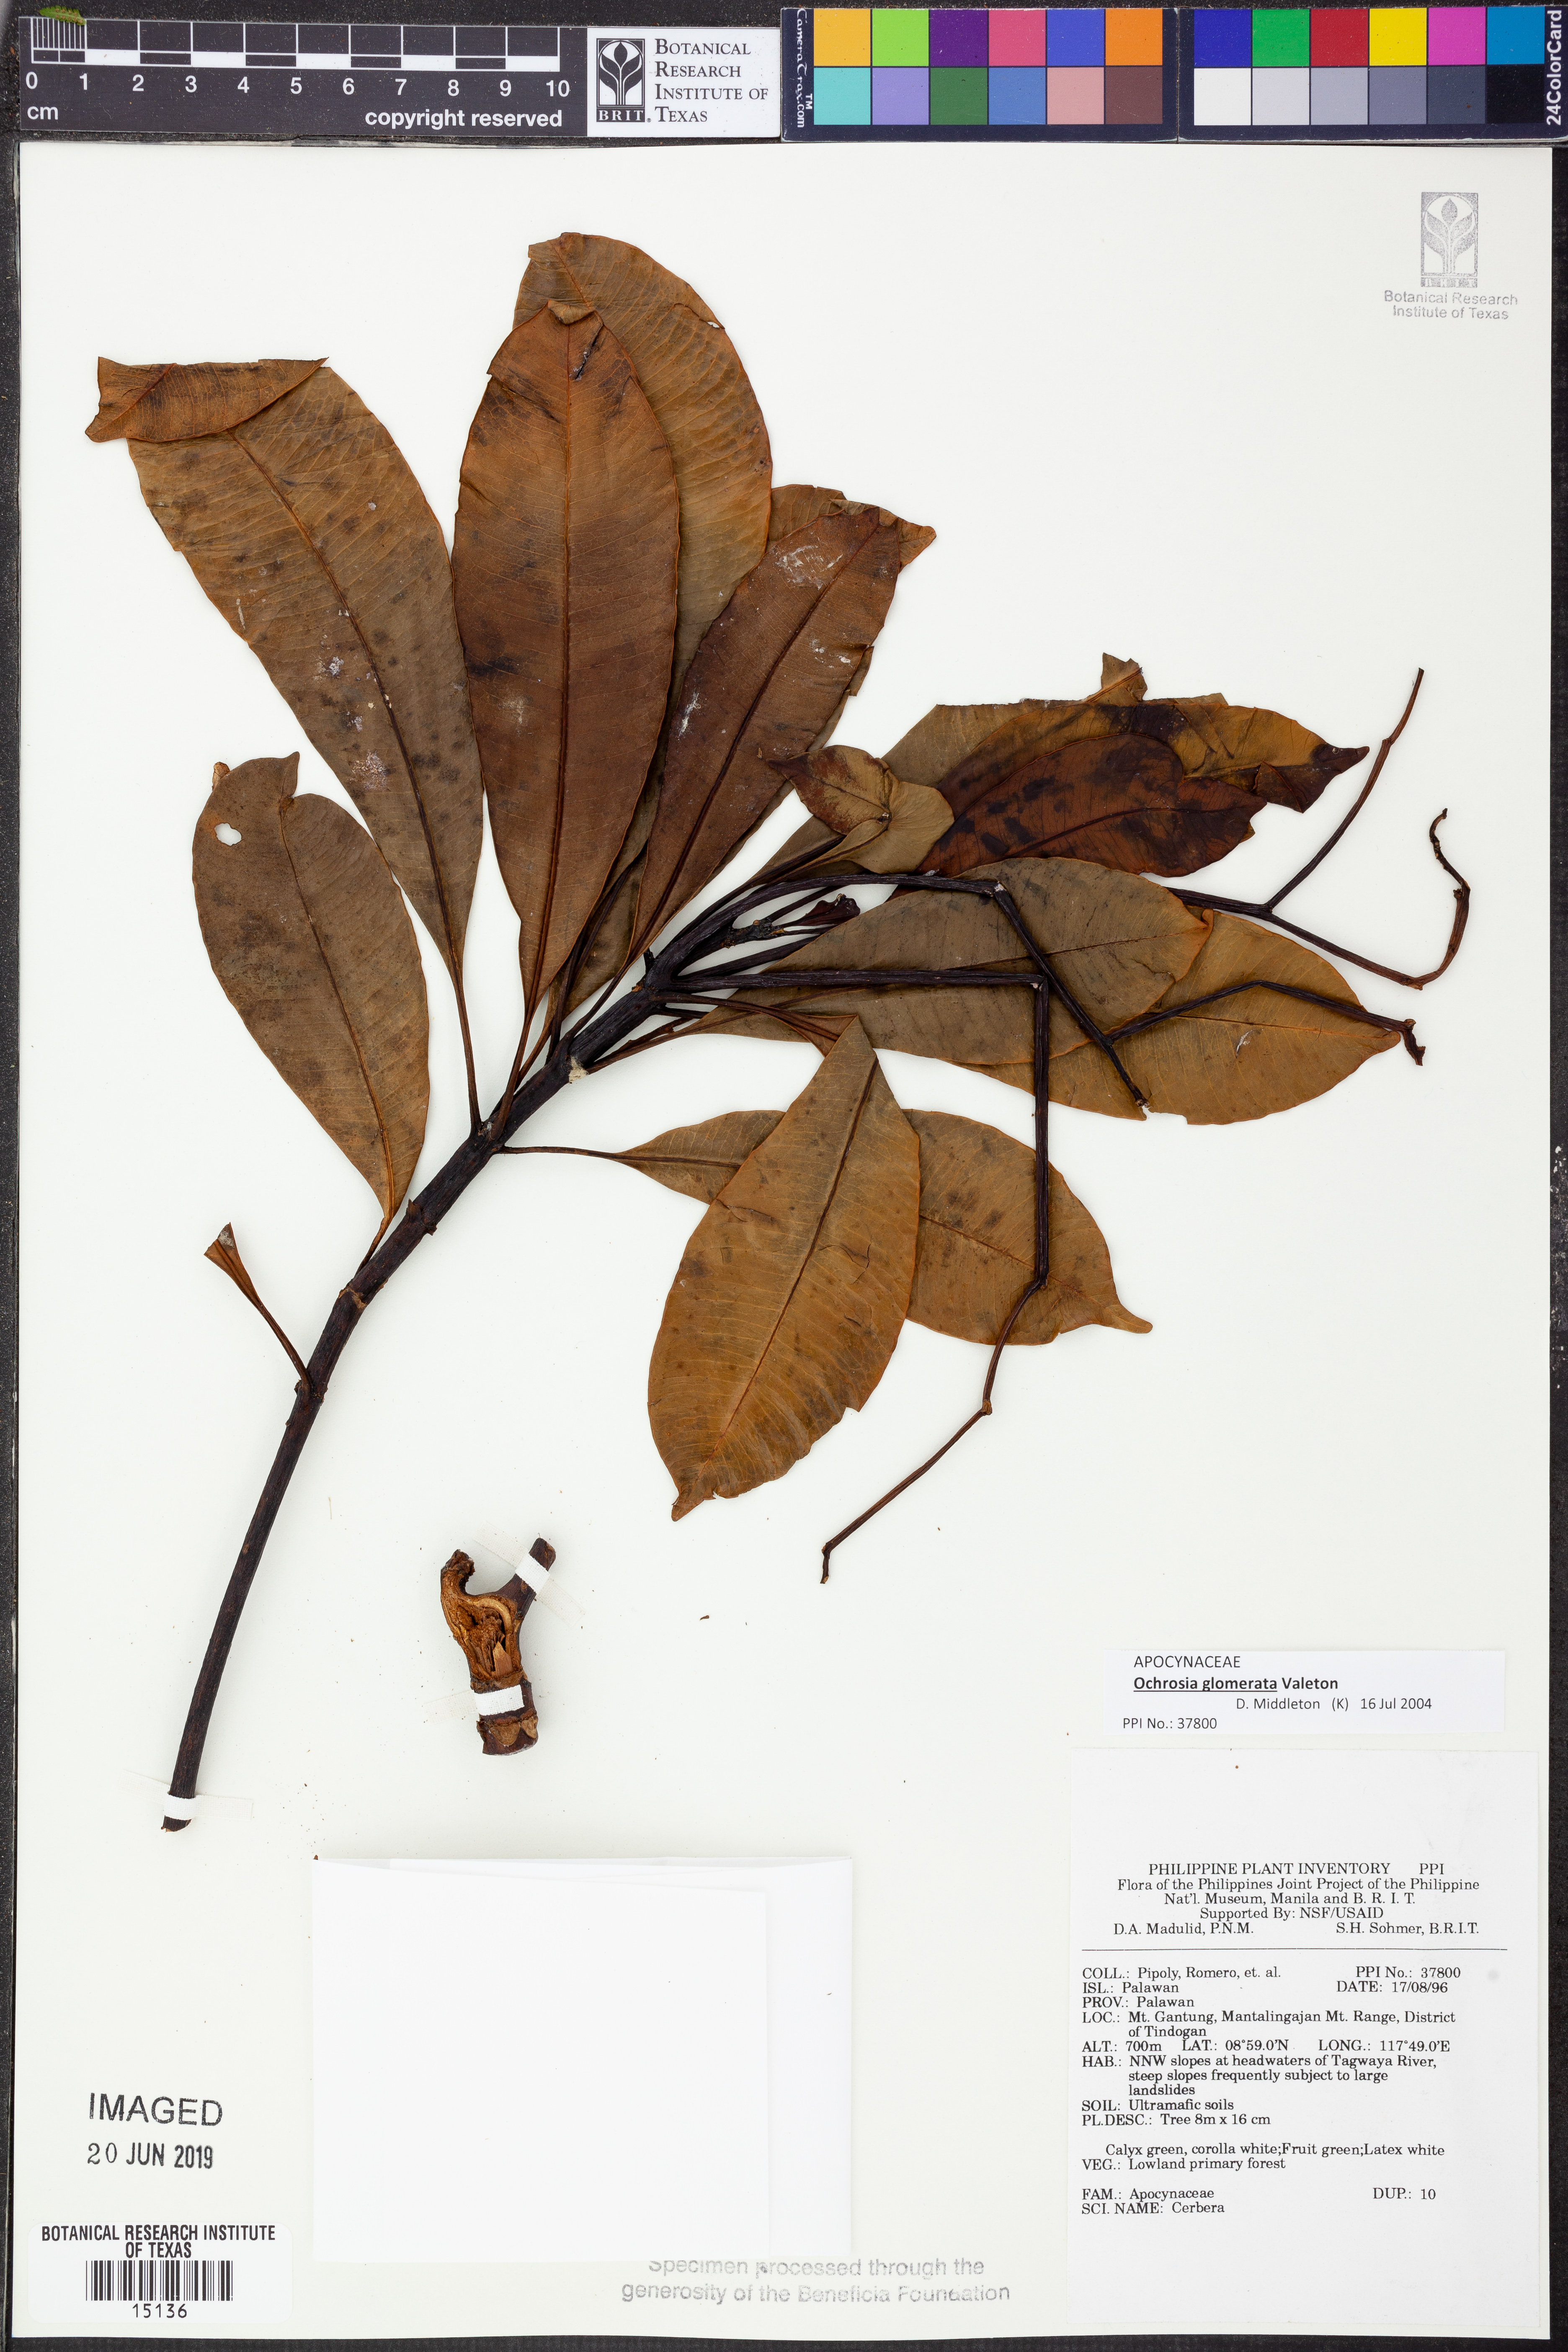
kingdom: Plantae
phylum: Tracheophyta
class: Magnoliopsida
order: Gentianales
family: Apocynaceae
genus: Ochrosia
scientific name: Ochrosia glomerata
